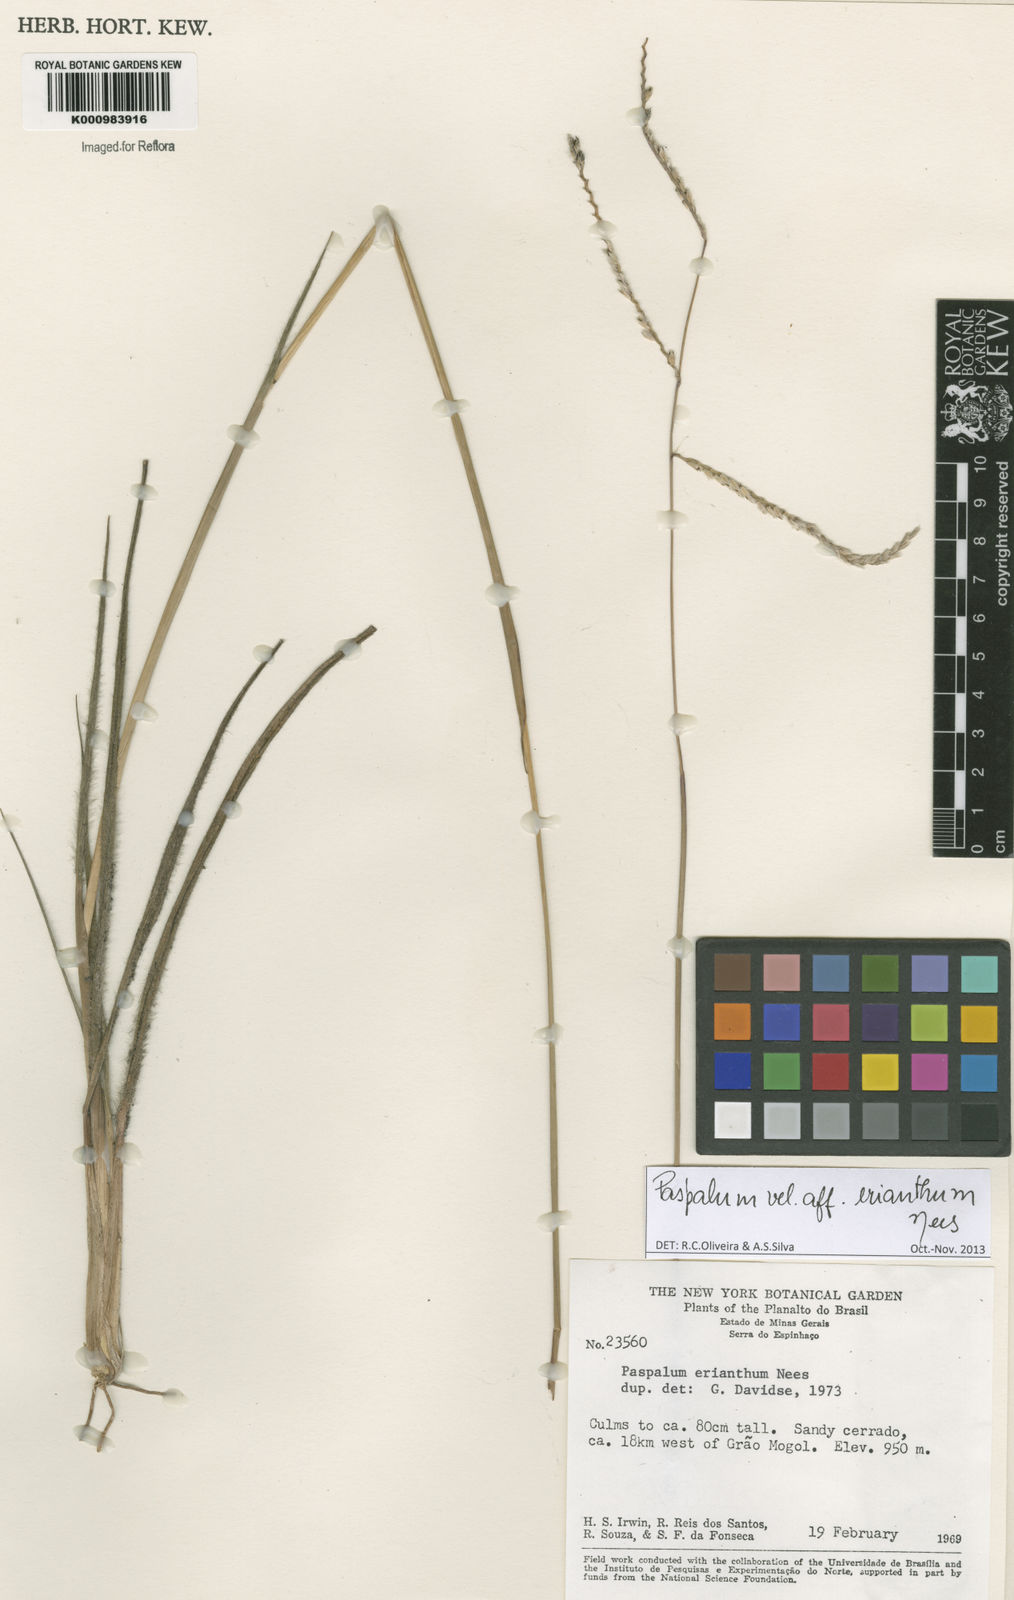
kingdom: Plantae
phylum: Tracheophyta
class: Liliopsida
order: Poales
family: Poaceae
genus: Paspalum
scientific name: Paspalum erianthum
